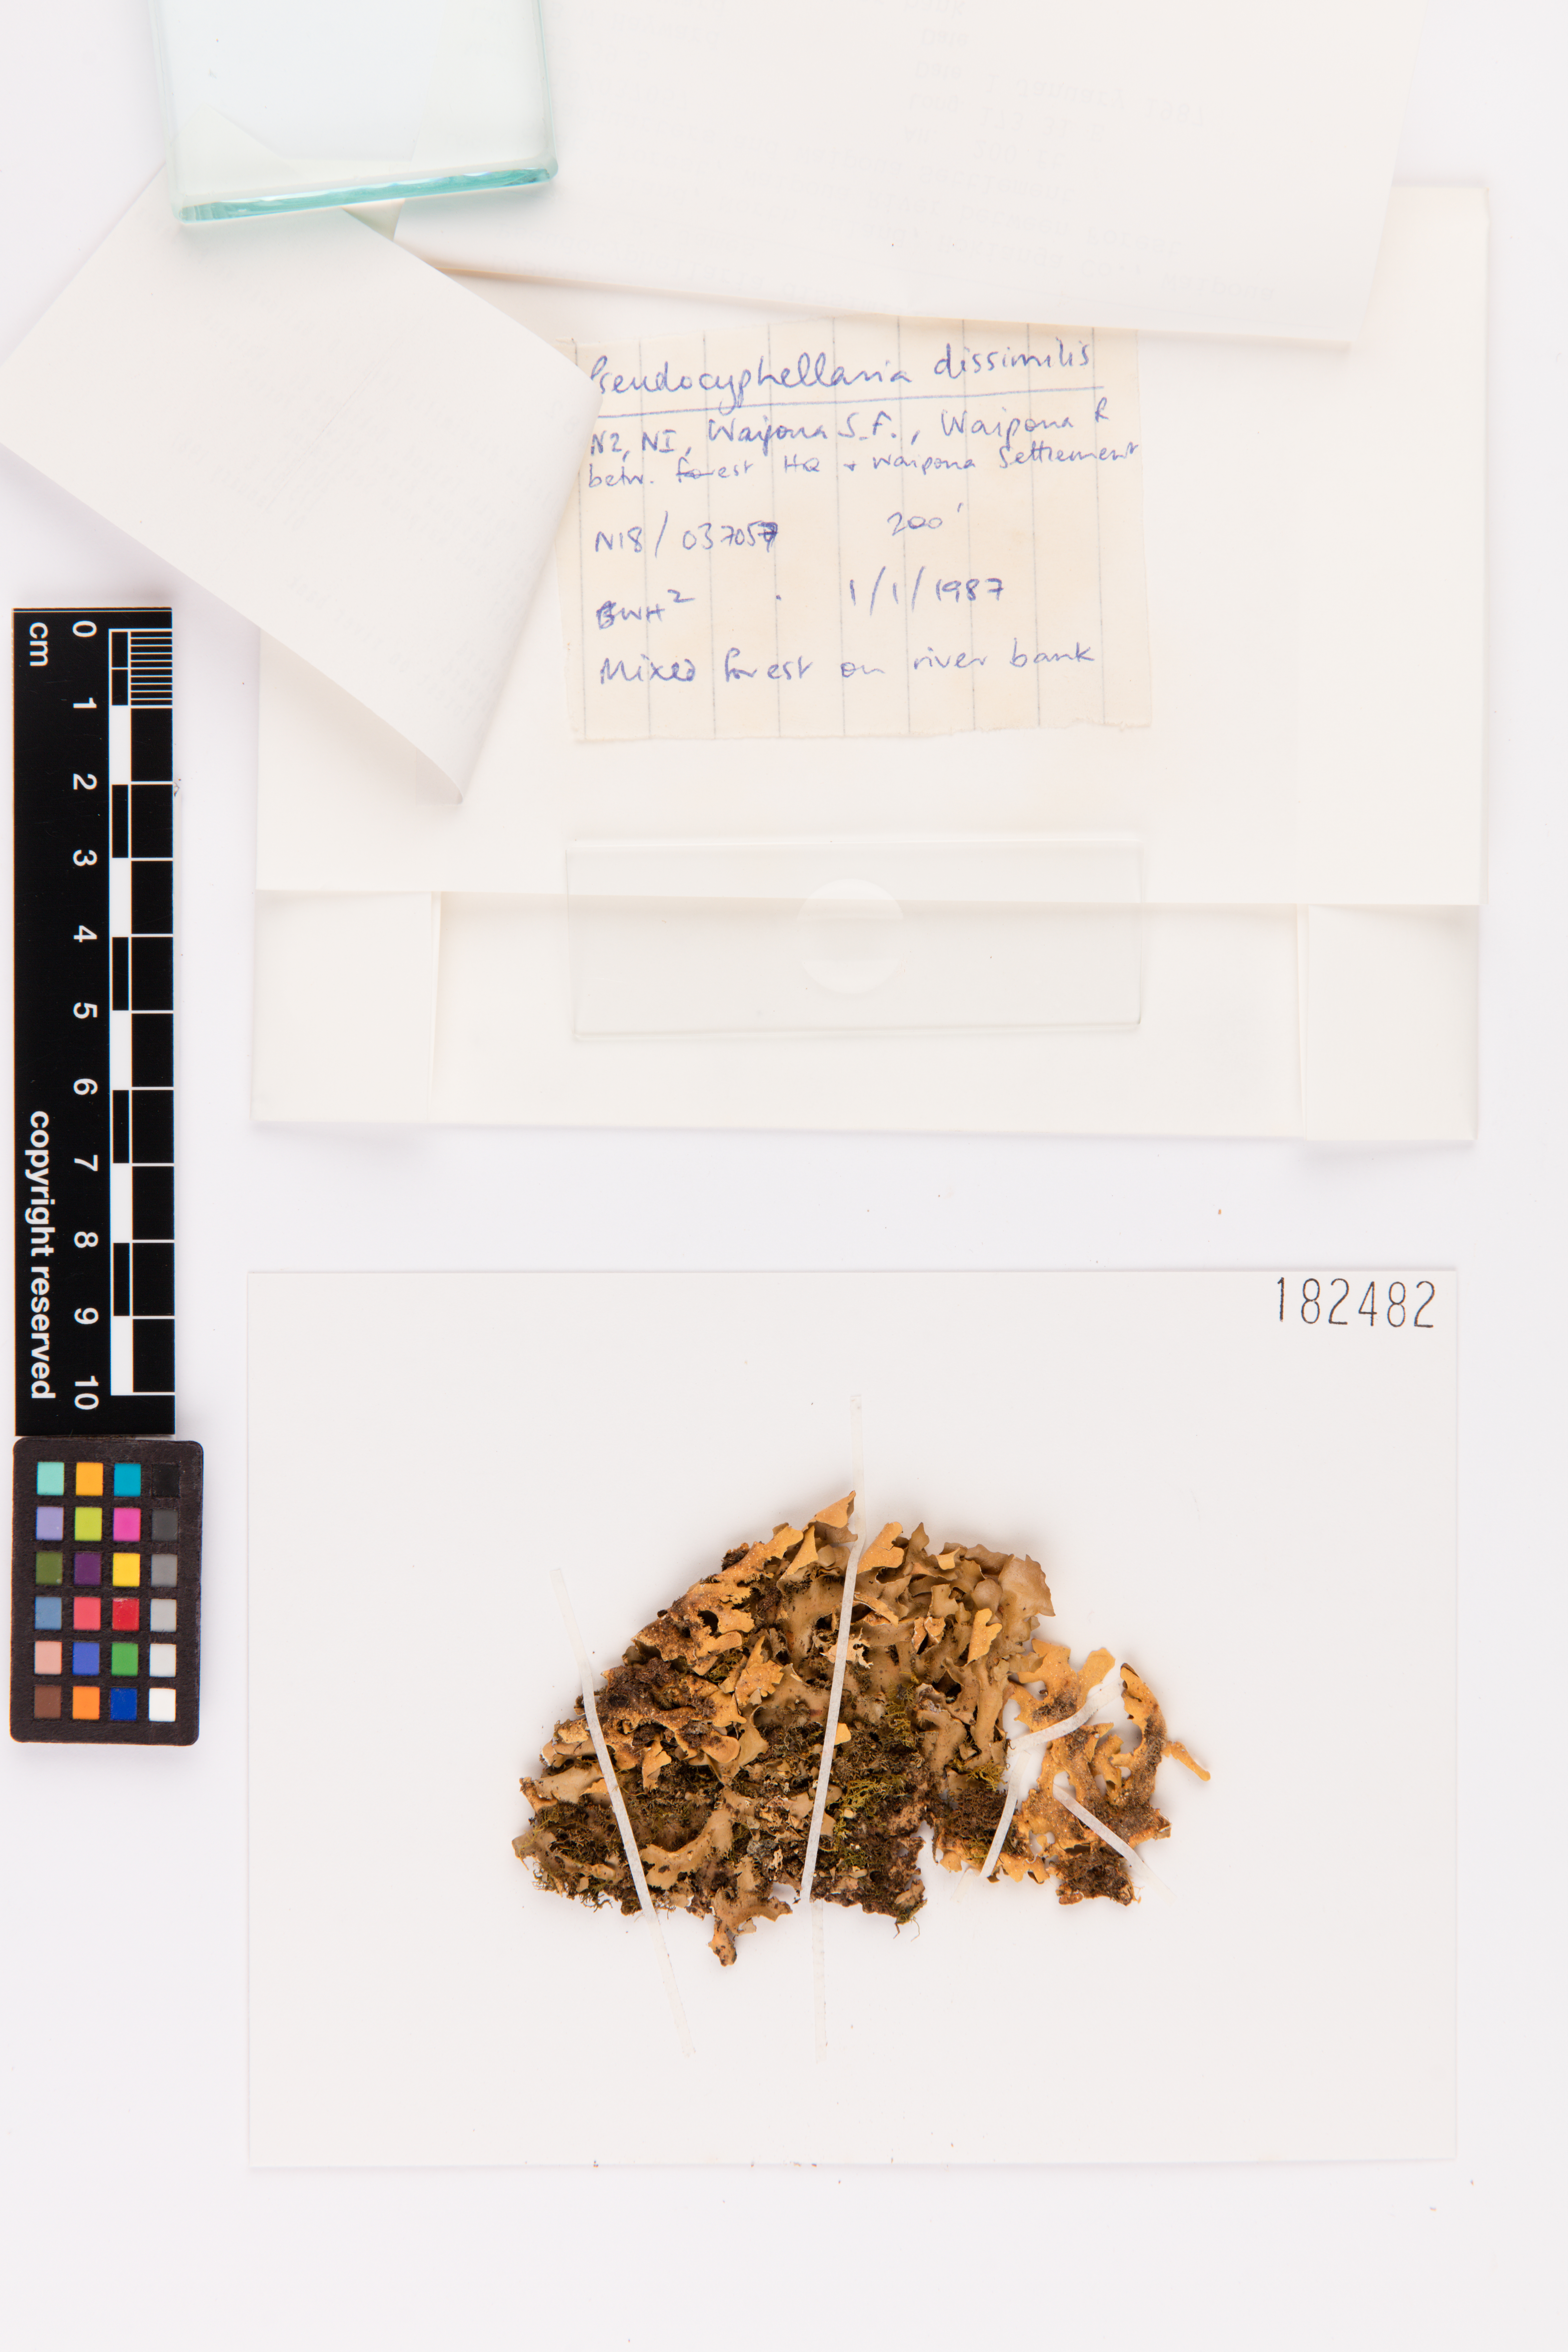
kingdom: Fungi
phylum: Ascomycota
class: Lecanoromycetes
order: Peltigerales
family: Lobariaceae
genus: Pseudocyphellaria
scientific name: Pseudocyphellaria dissimilis
